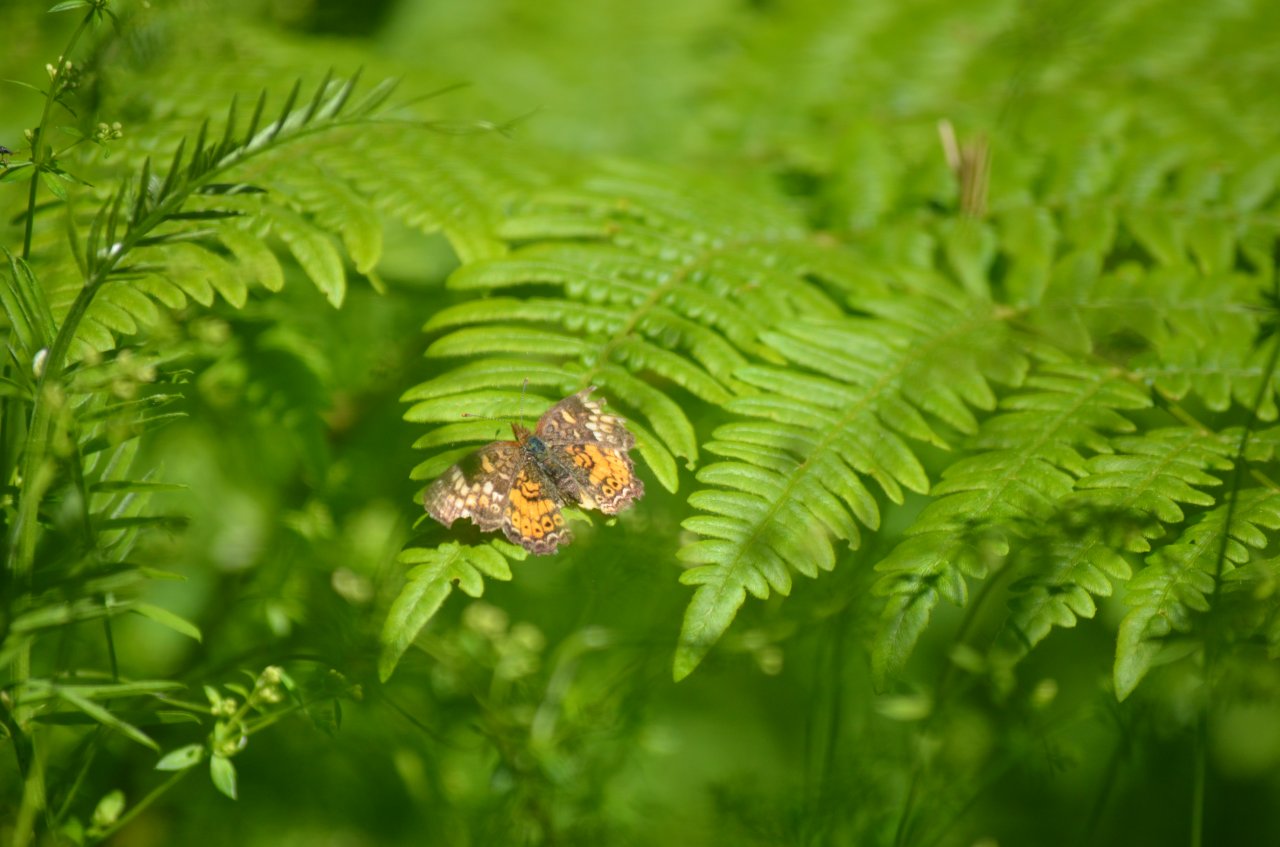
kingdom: Animalia
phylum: Arthropoda
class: Insecta
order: Lepidoptera
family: Nymphalidae
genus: Phyciodes
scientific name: Phyciodes tharos
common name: Northern Crescent
